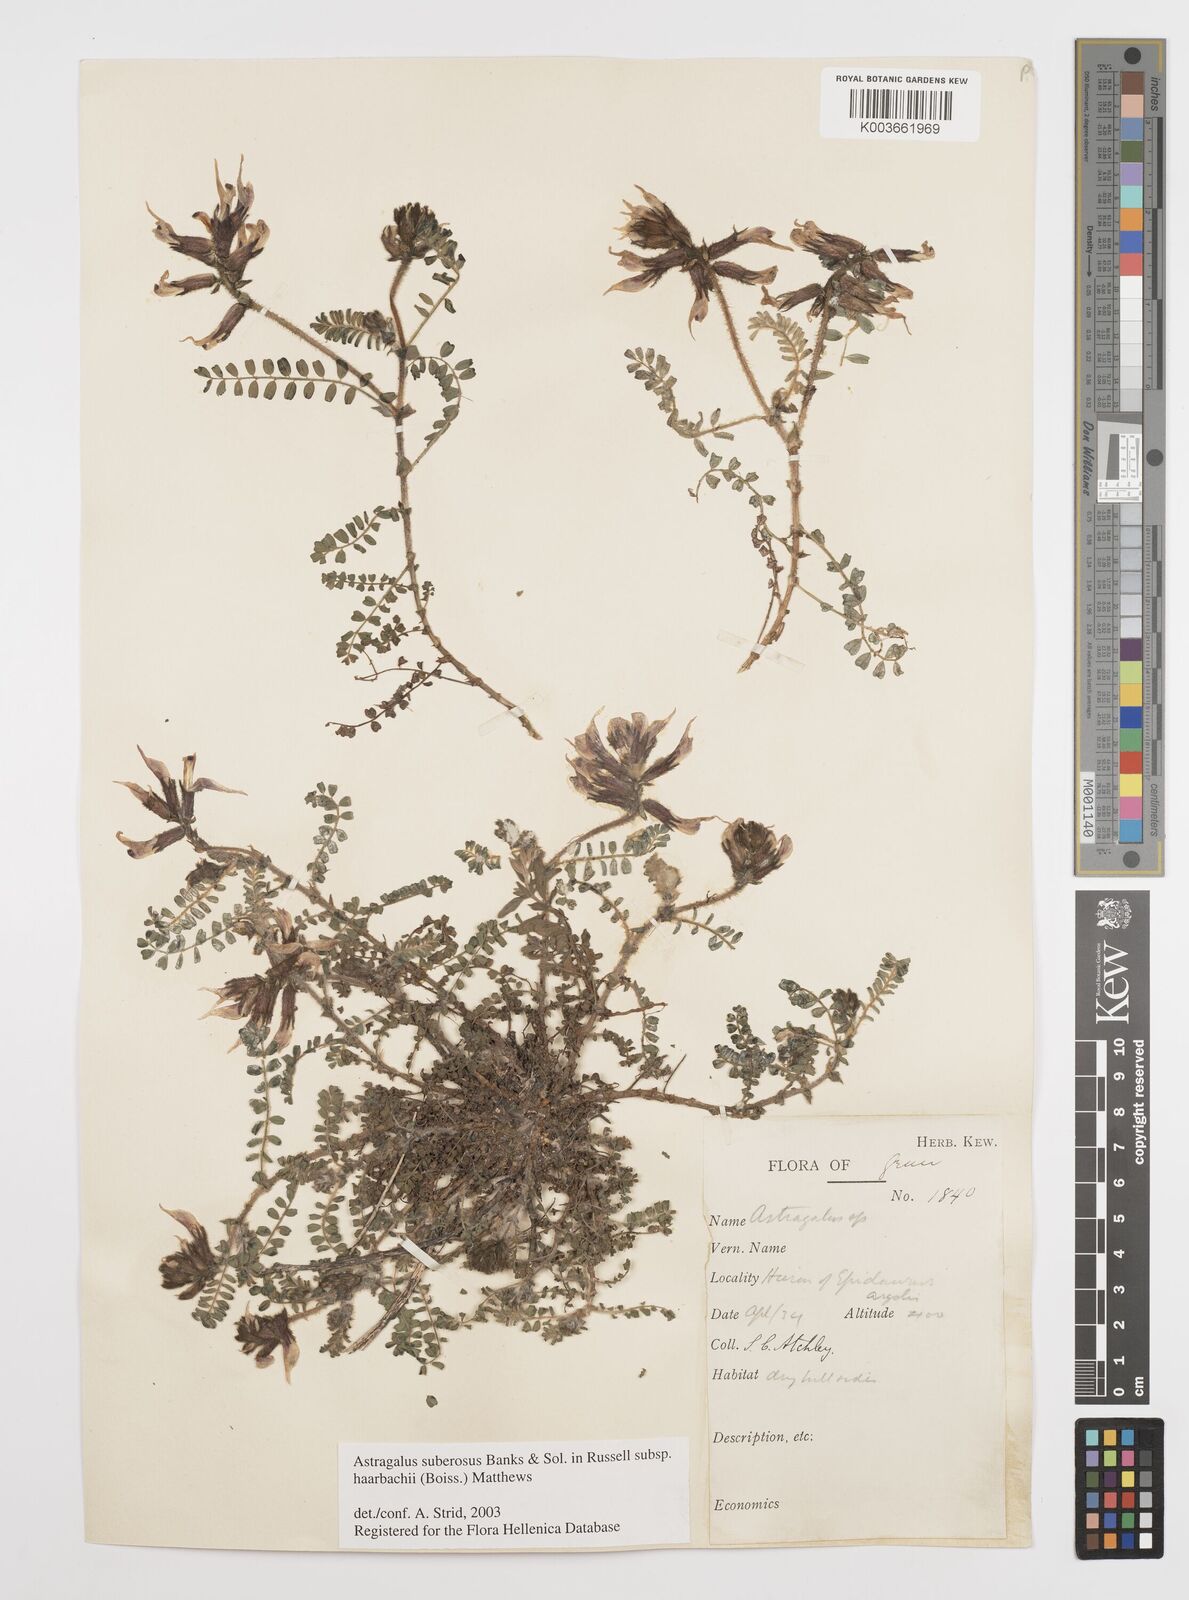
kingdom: Plantae
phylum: Tracheophyta
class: Magnoliopsida
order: Fabales
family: Fabaceae
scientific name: Fabaceae
